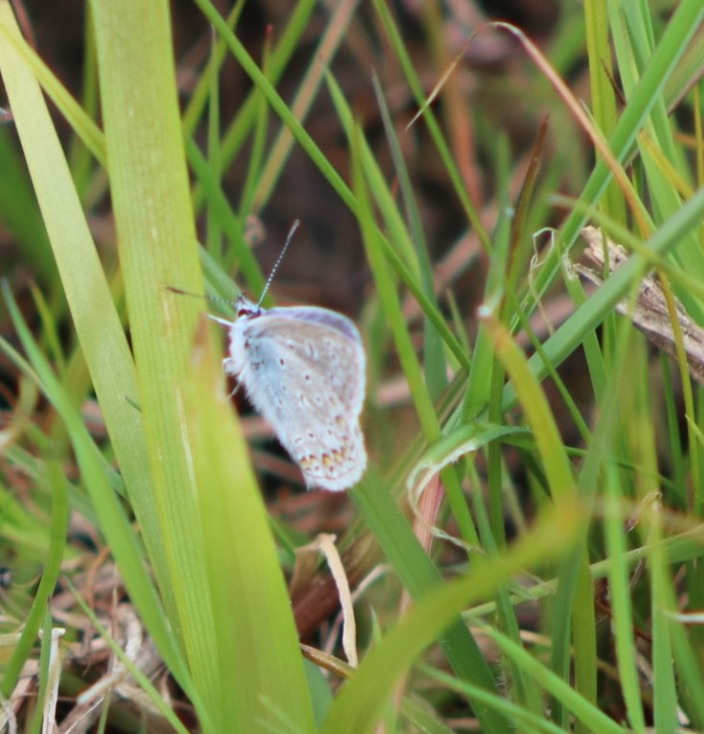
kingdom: Animalia
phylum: Arthropoda
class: Insecta
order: Lepidoptera
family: Lycaenidae
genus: Polyommatus
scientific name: Polyommatus icarus
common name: Almindelig blåfugl
